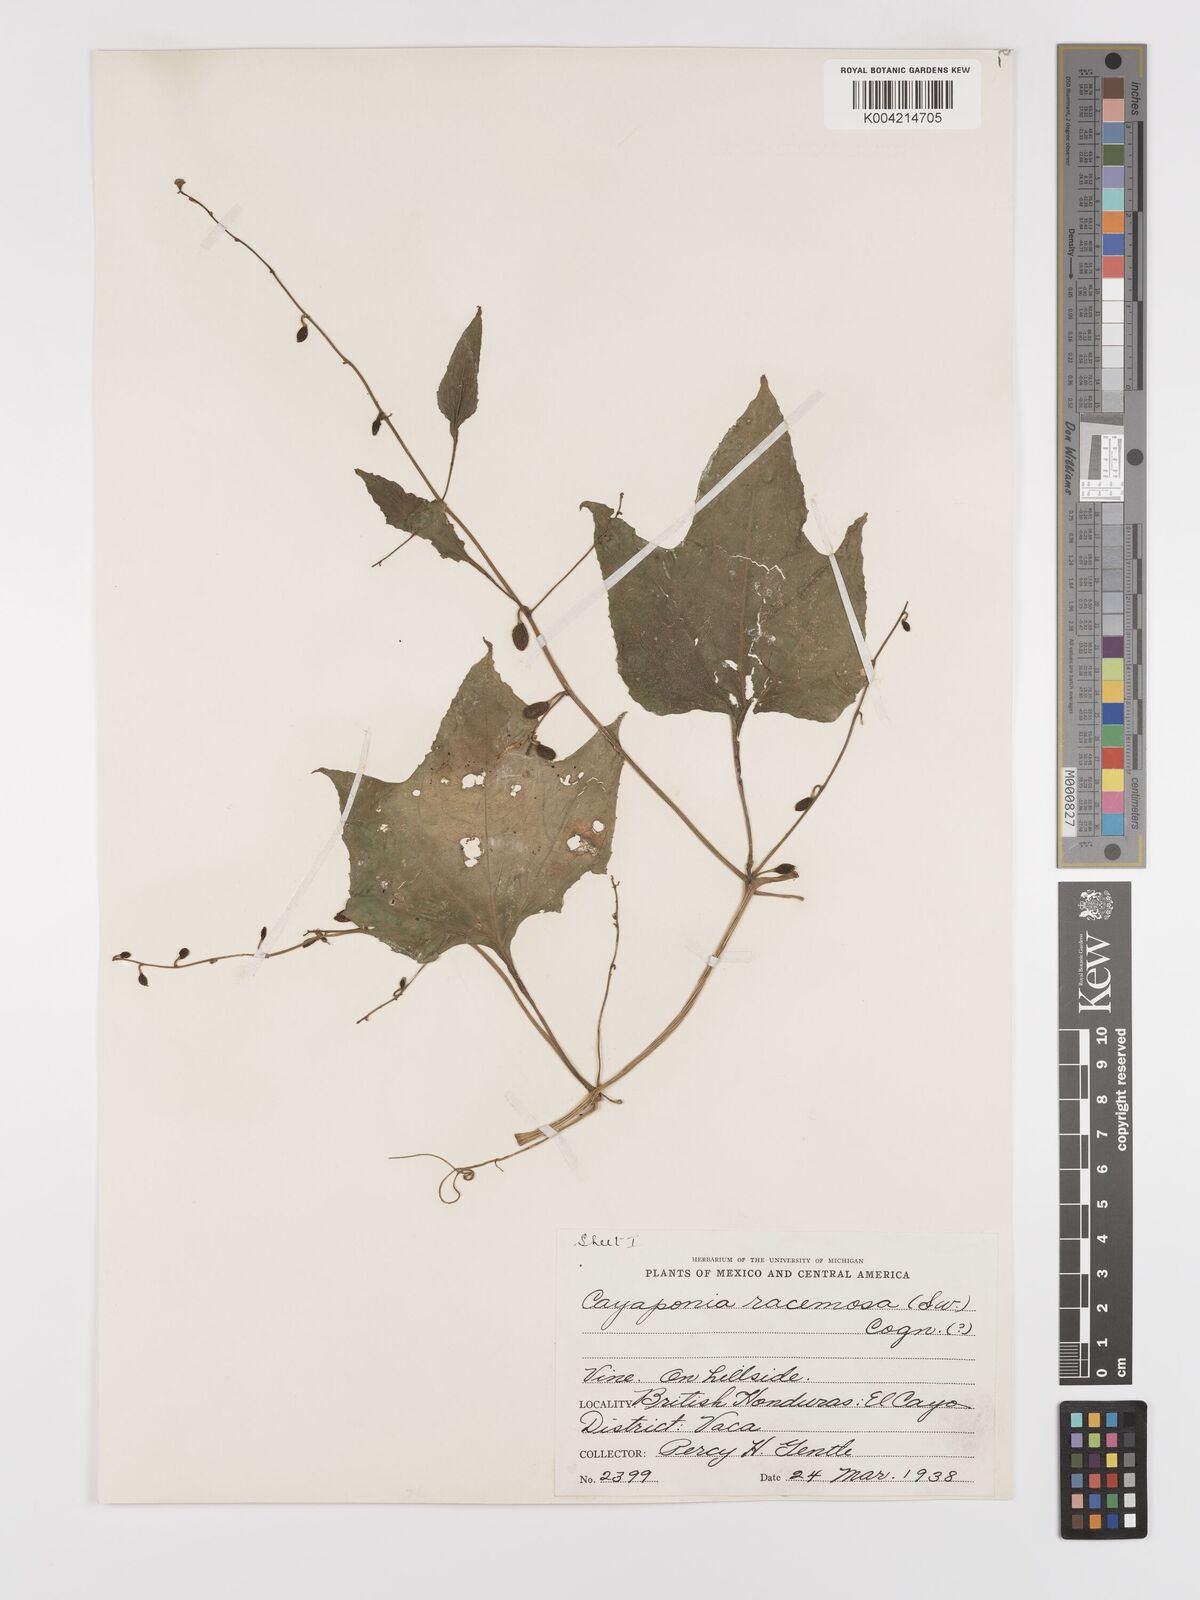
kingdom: Plantae
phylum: Tracheophyta
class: Magnoliopsida
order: Cucurbitales
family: Cucurbitaceae
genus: Cayaponia
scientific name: Cayaponia racemosa
